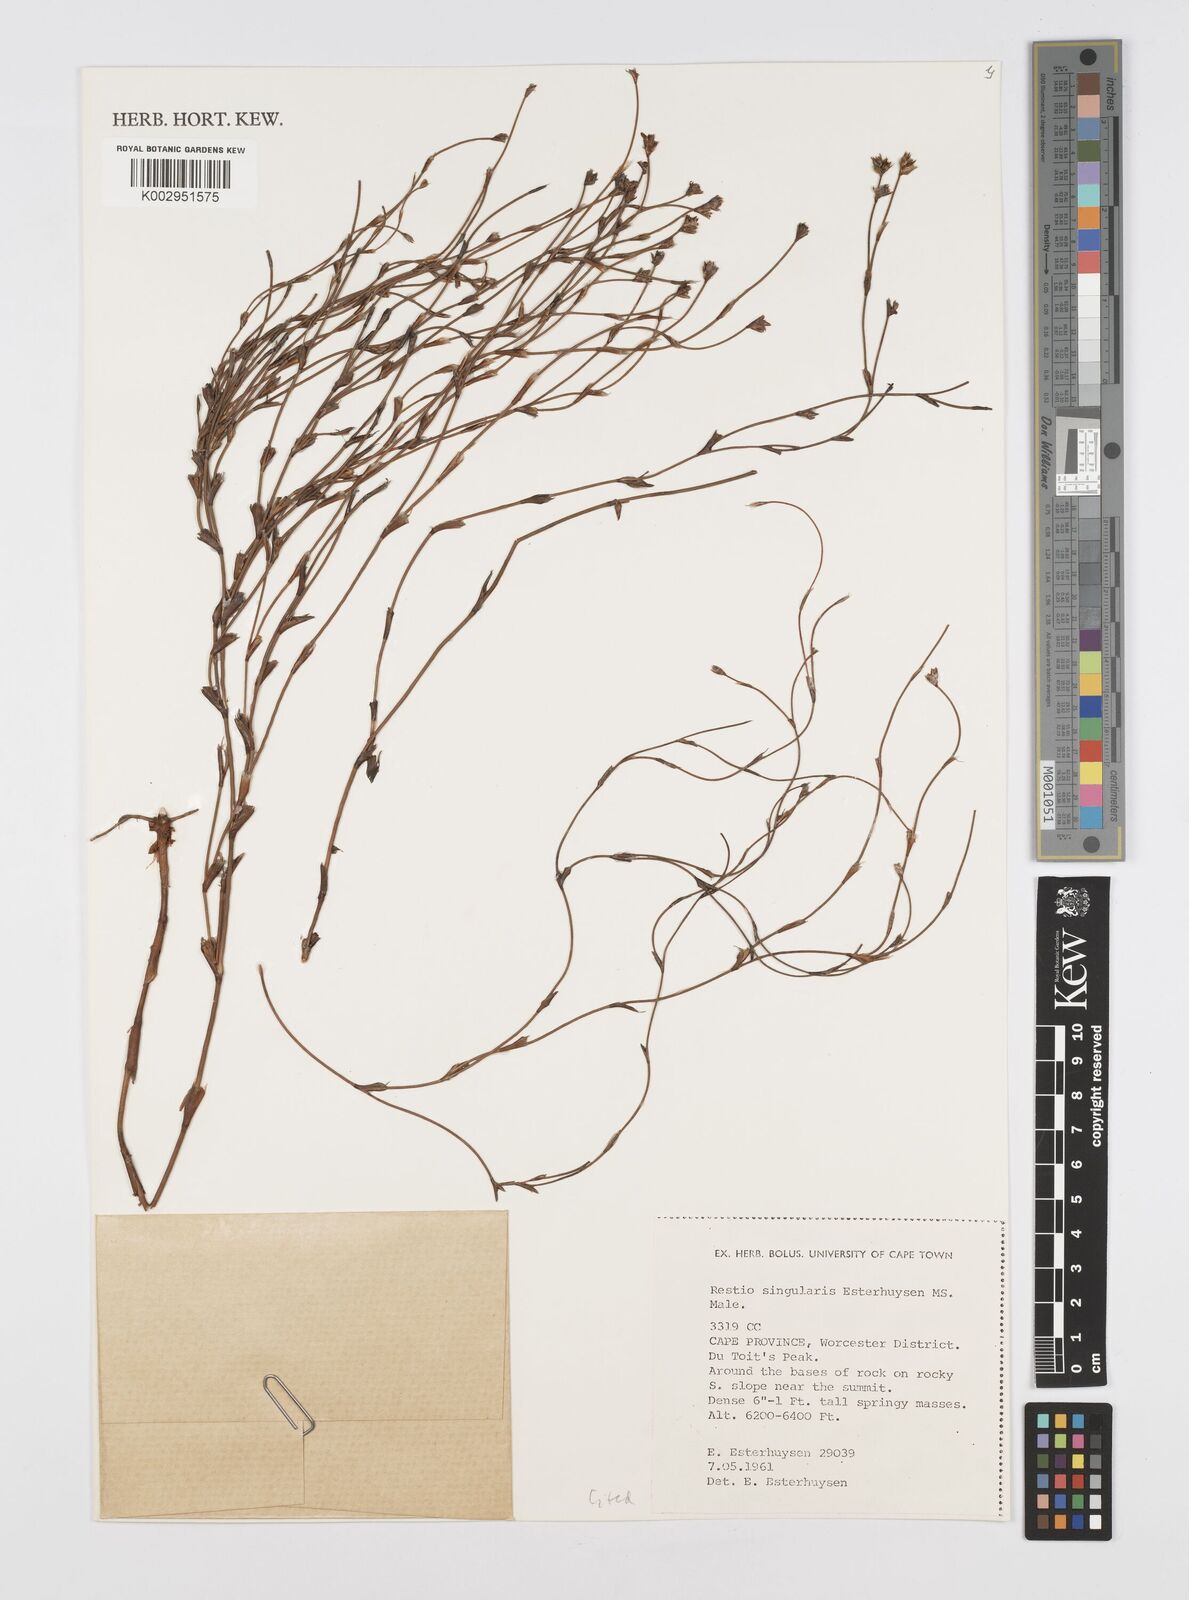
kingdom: Plantae
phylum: Tracheophyta
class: Liliopsida
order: Poales
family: Restionaceae
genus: Restio
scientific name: Restio singularis
